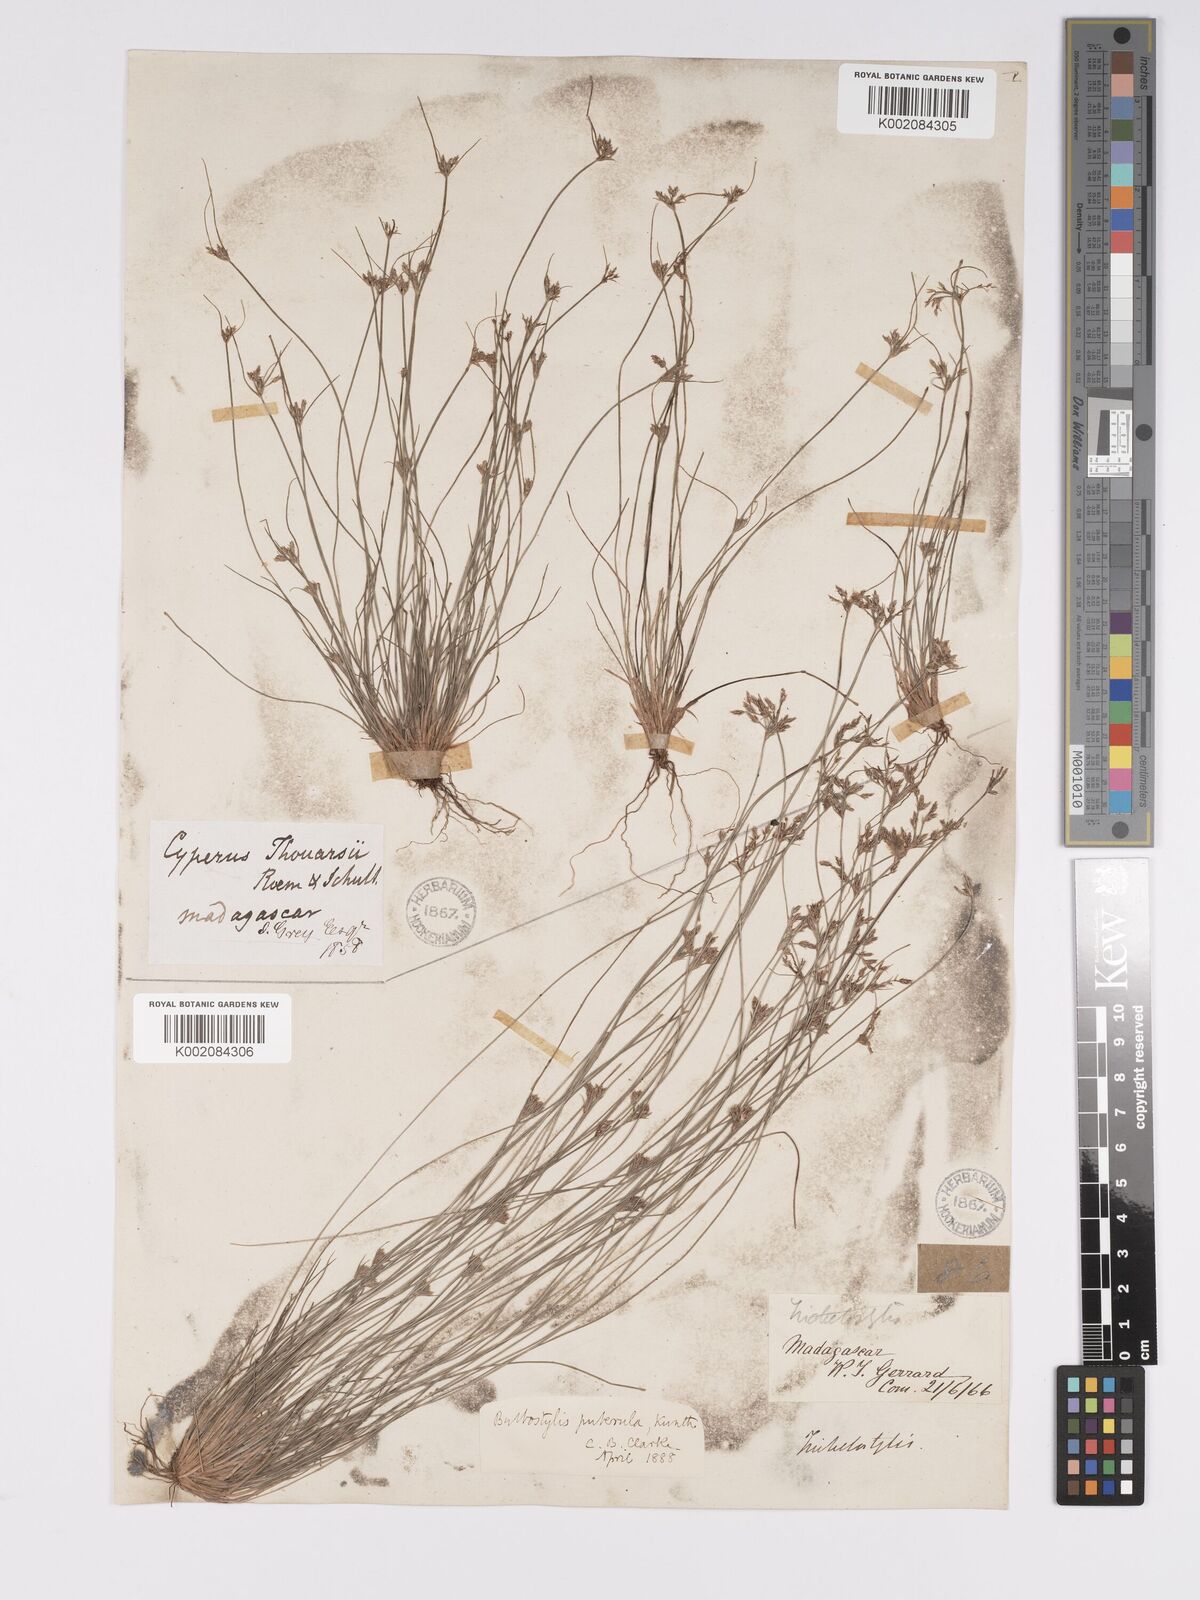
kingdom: Plantae
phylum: Tracheophyta
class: Liliopsida
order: Poales
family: Cyperaceae
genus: Bulbostylis
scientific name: Bulbostylis thouarsii
